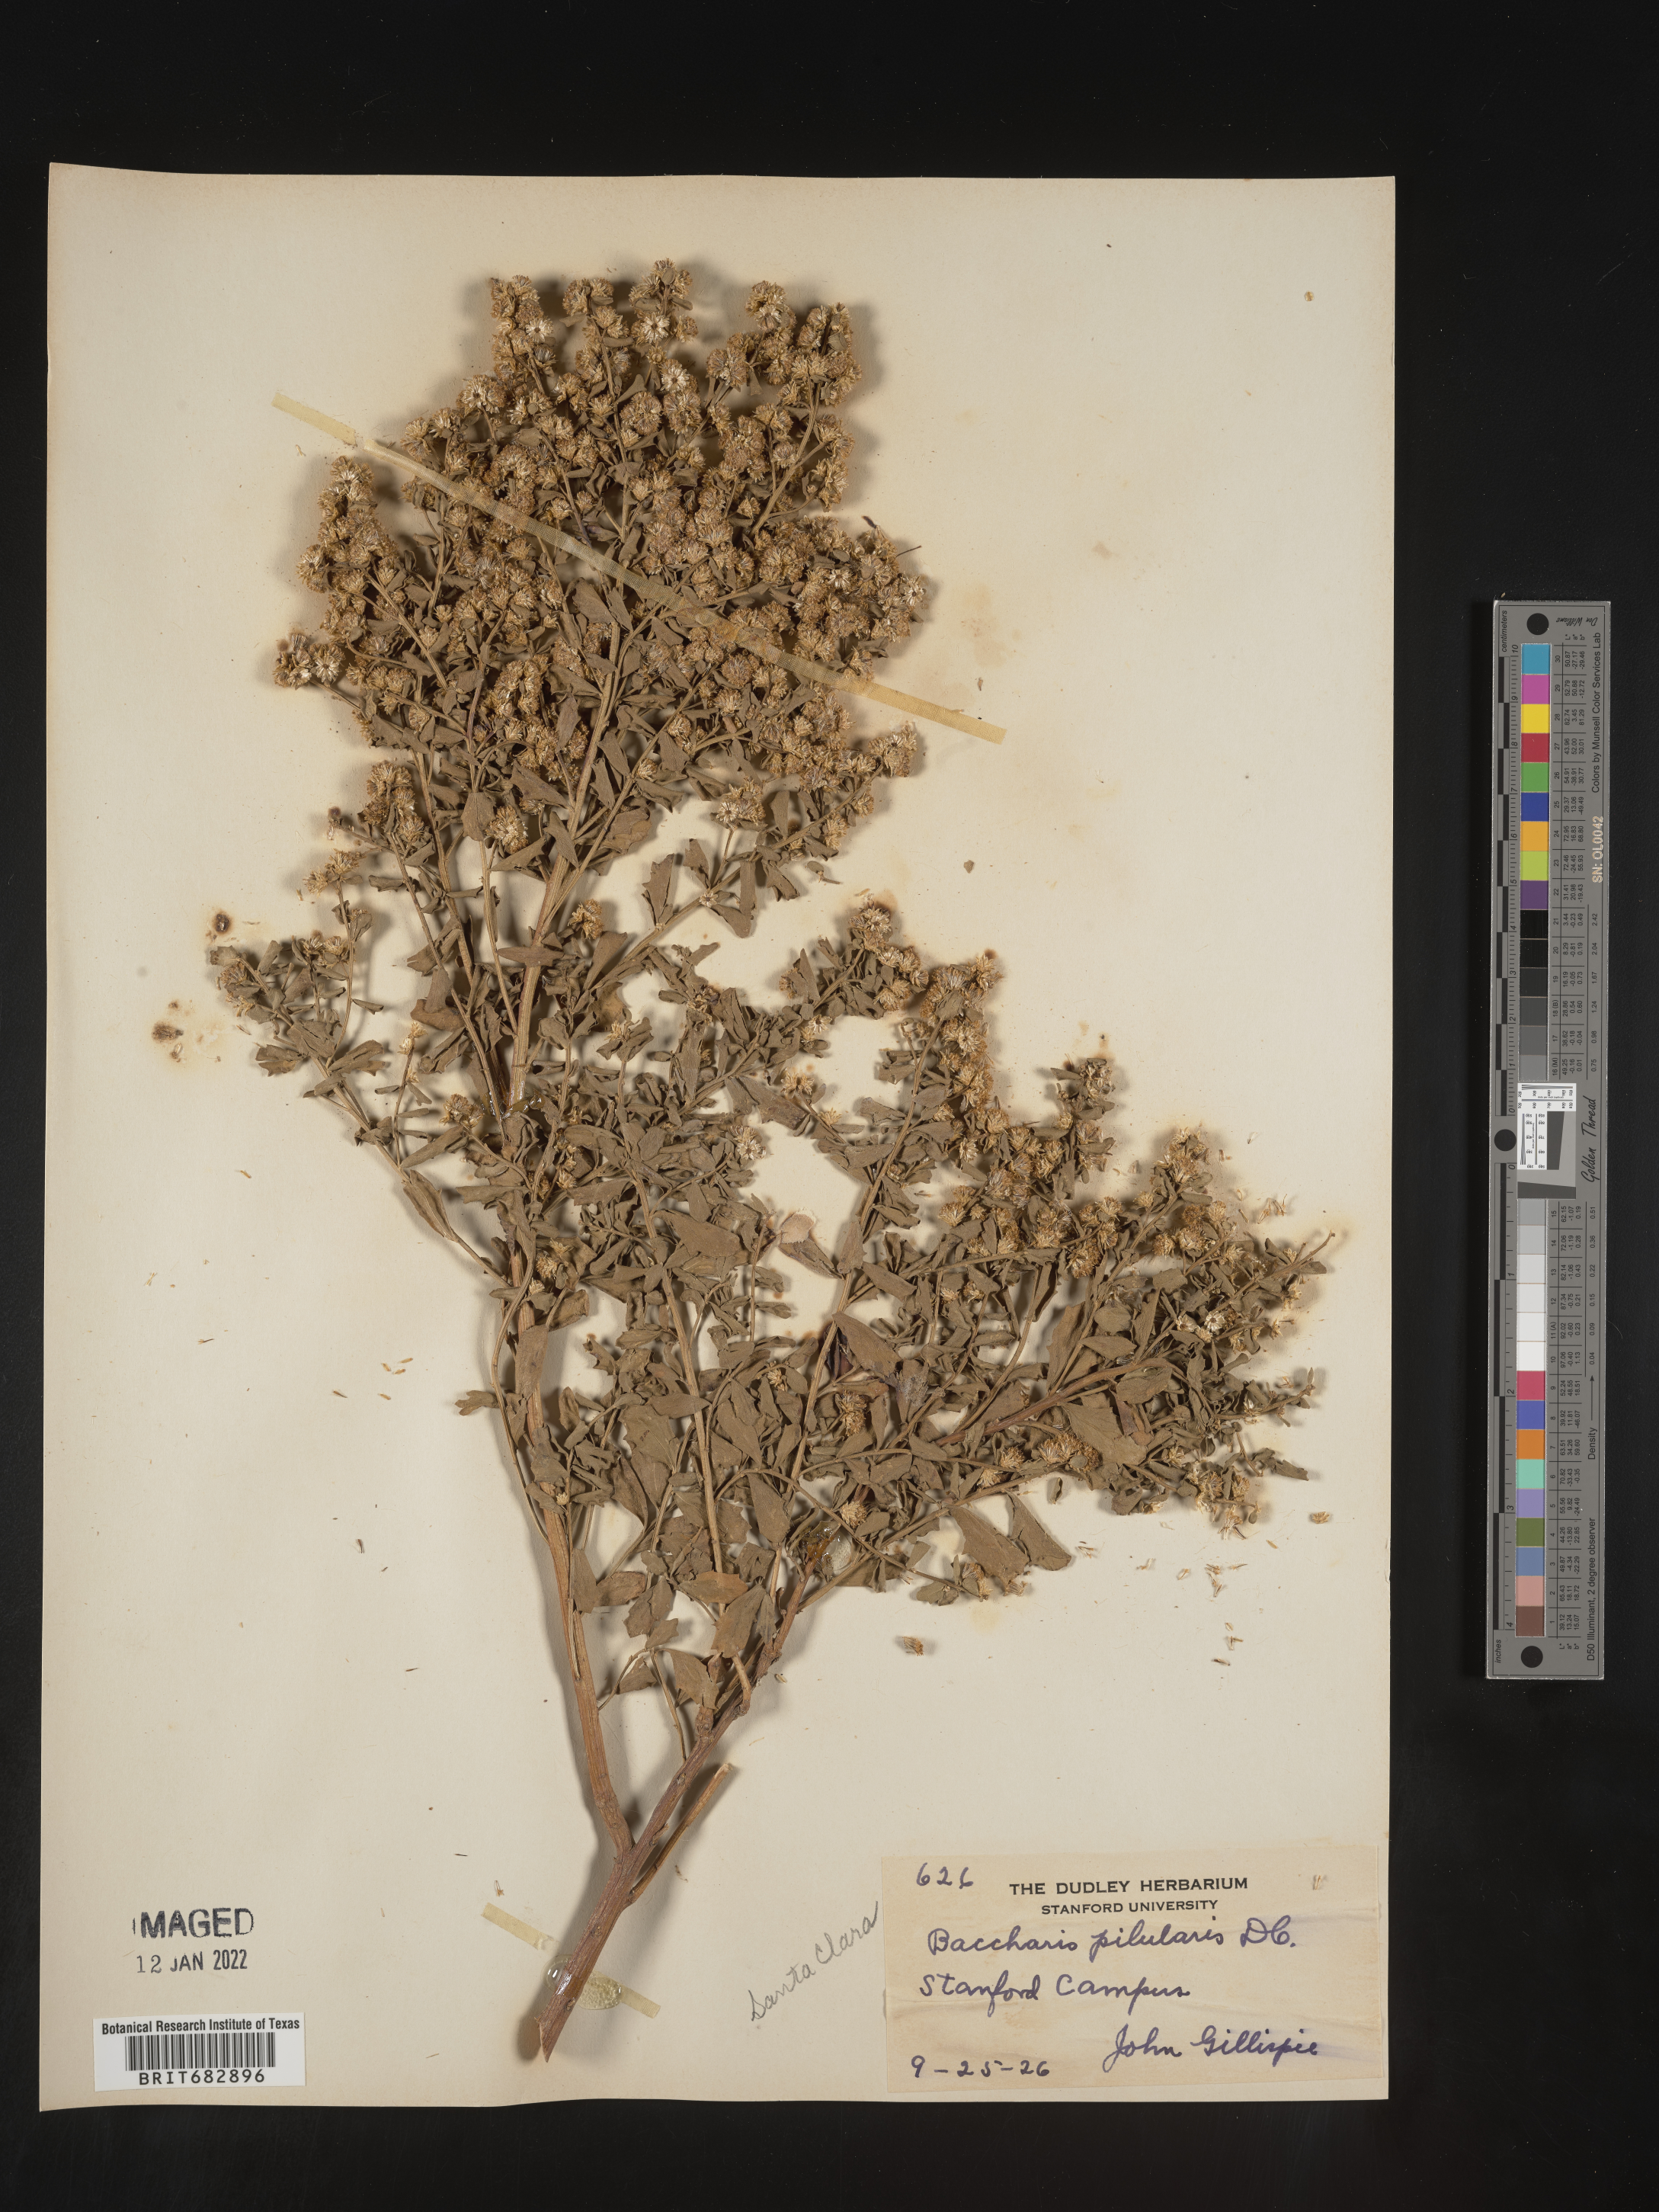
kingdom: Plantae
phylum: Tracheophyta
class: Magnoliopsida
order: Asterales
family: Asteraceae
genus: Baccharis
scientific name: Baccharis pilularis
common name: Coyotebrush
